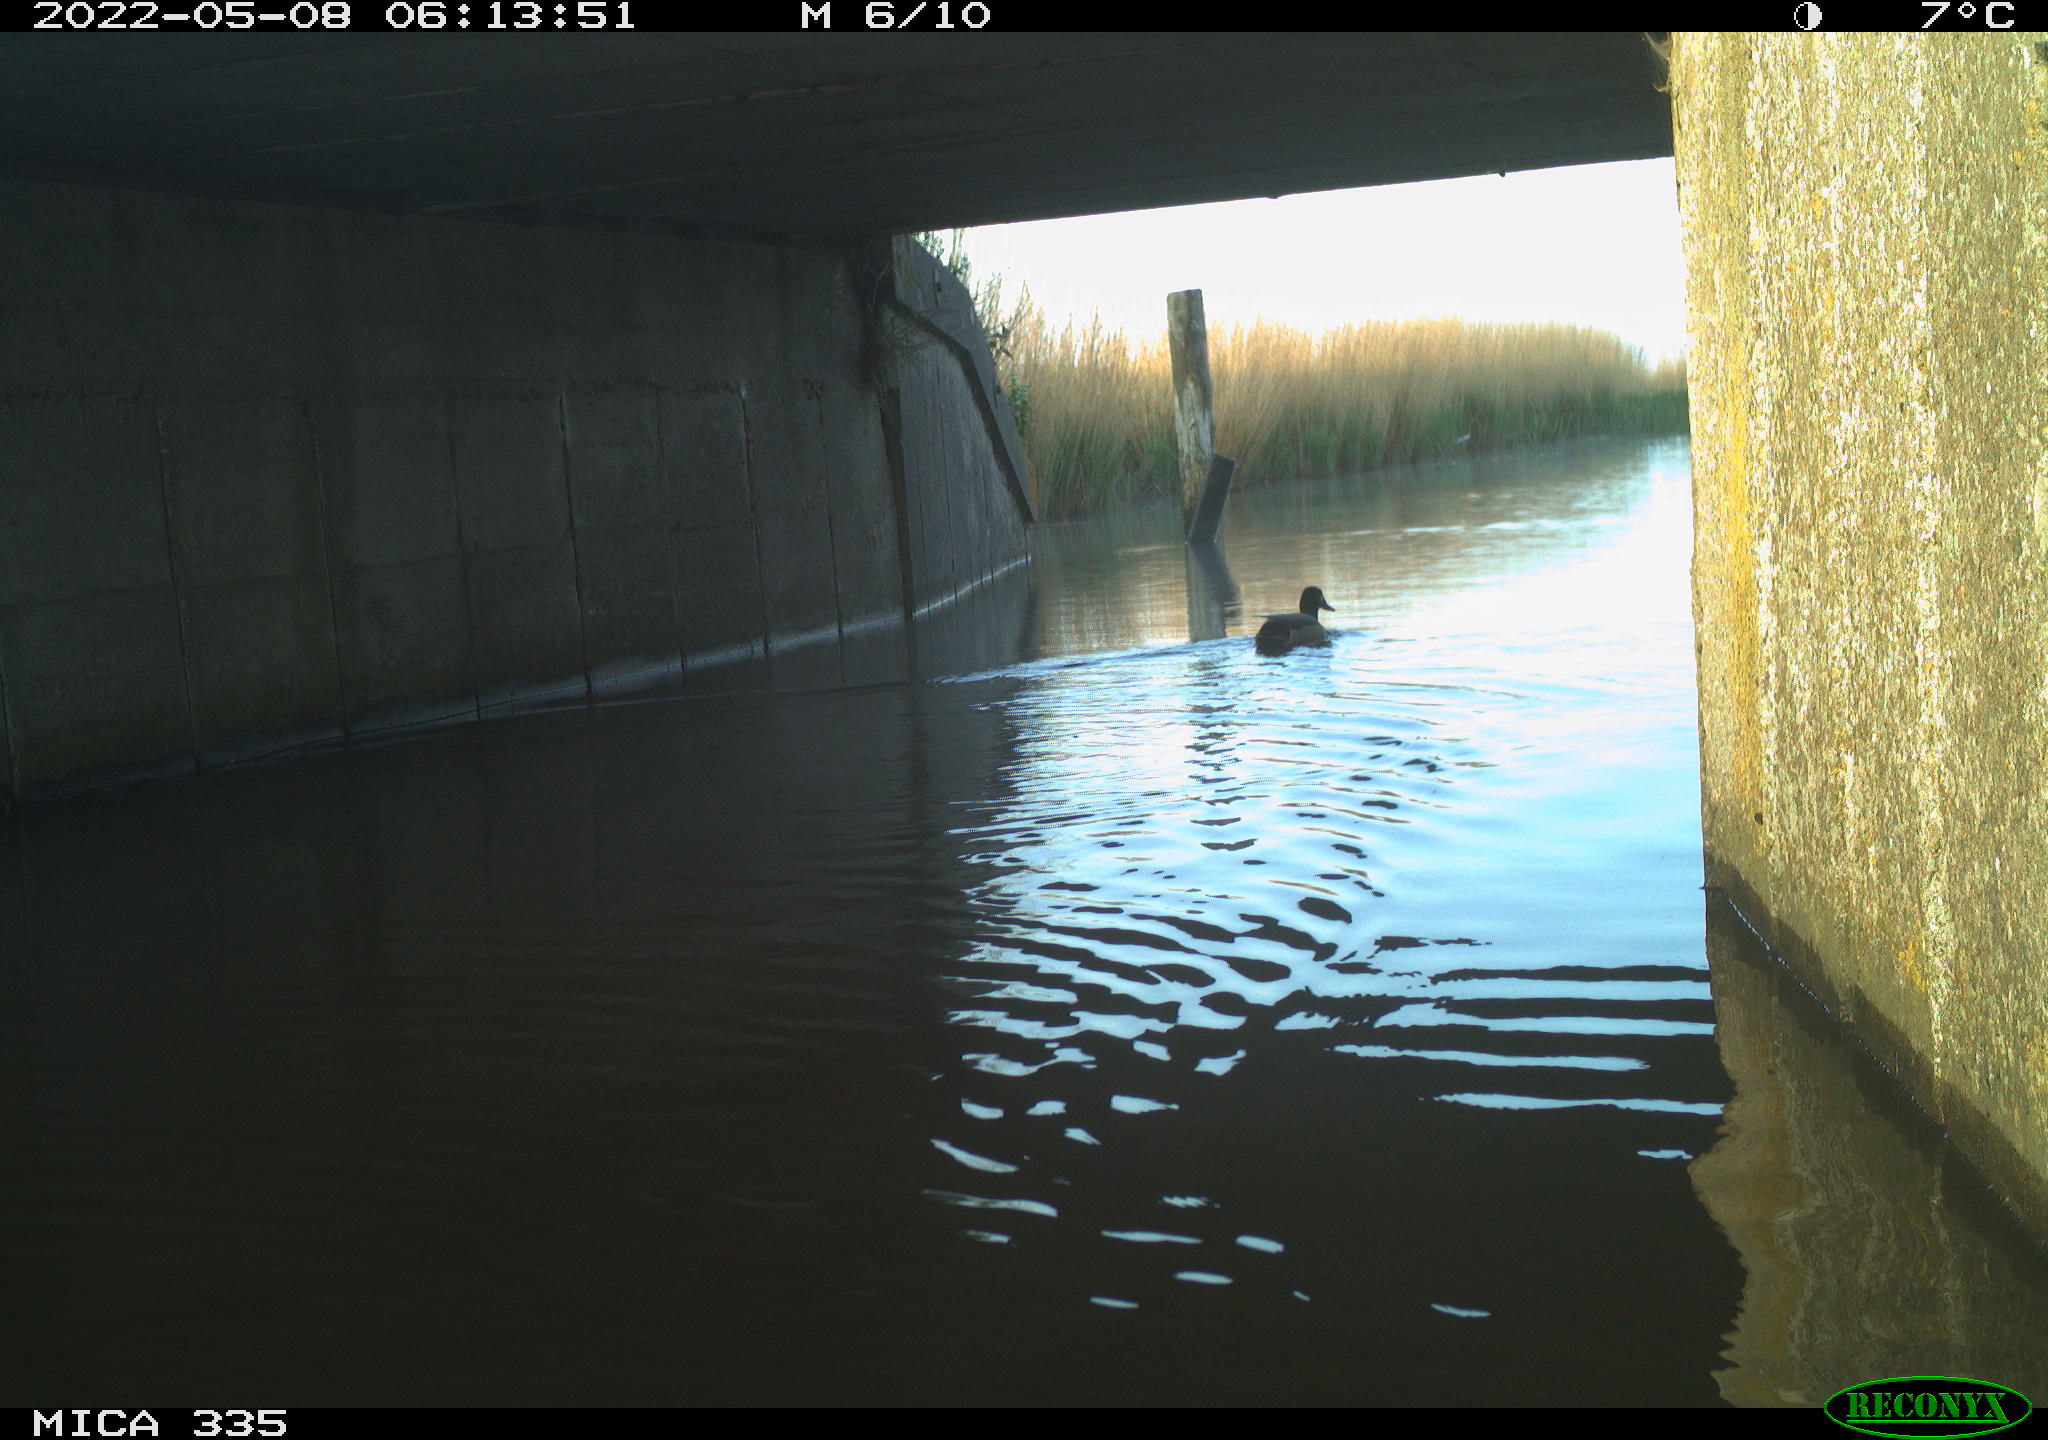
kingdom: Animalia
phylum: Chordata
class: Aves
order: Anseriformes
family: Anatidae
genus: Anas
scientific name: Anas platyrhynchos
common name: Mallard
